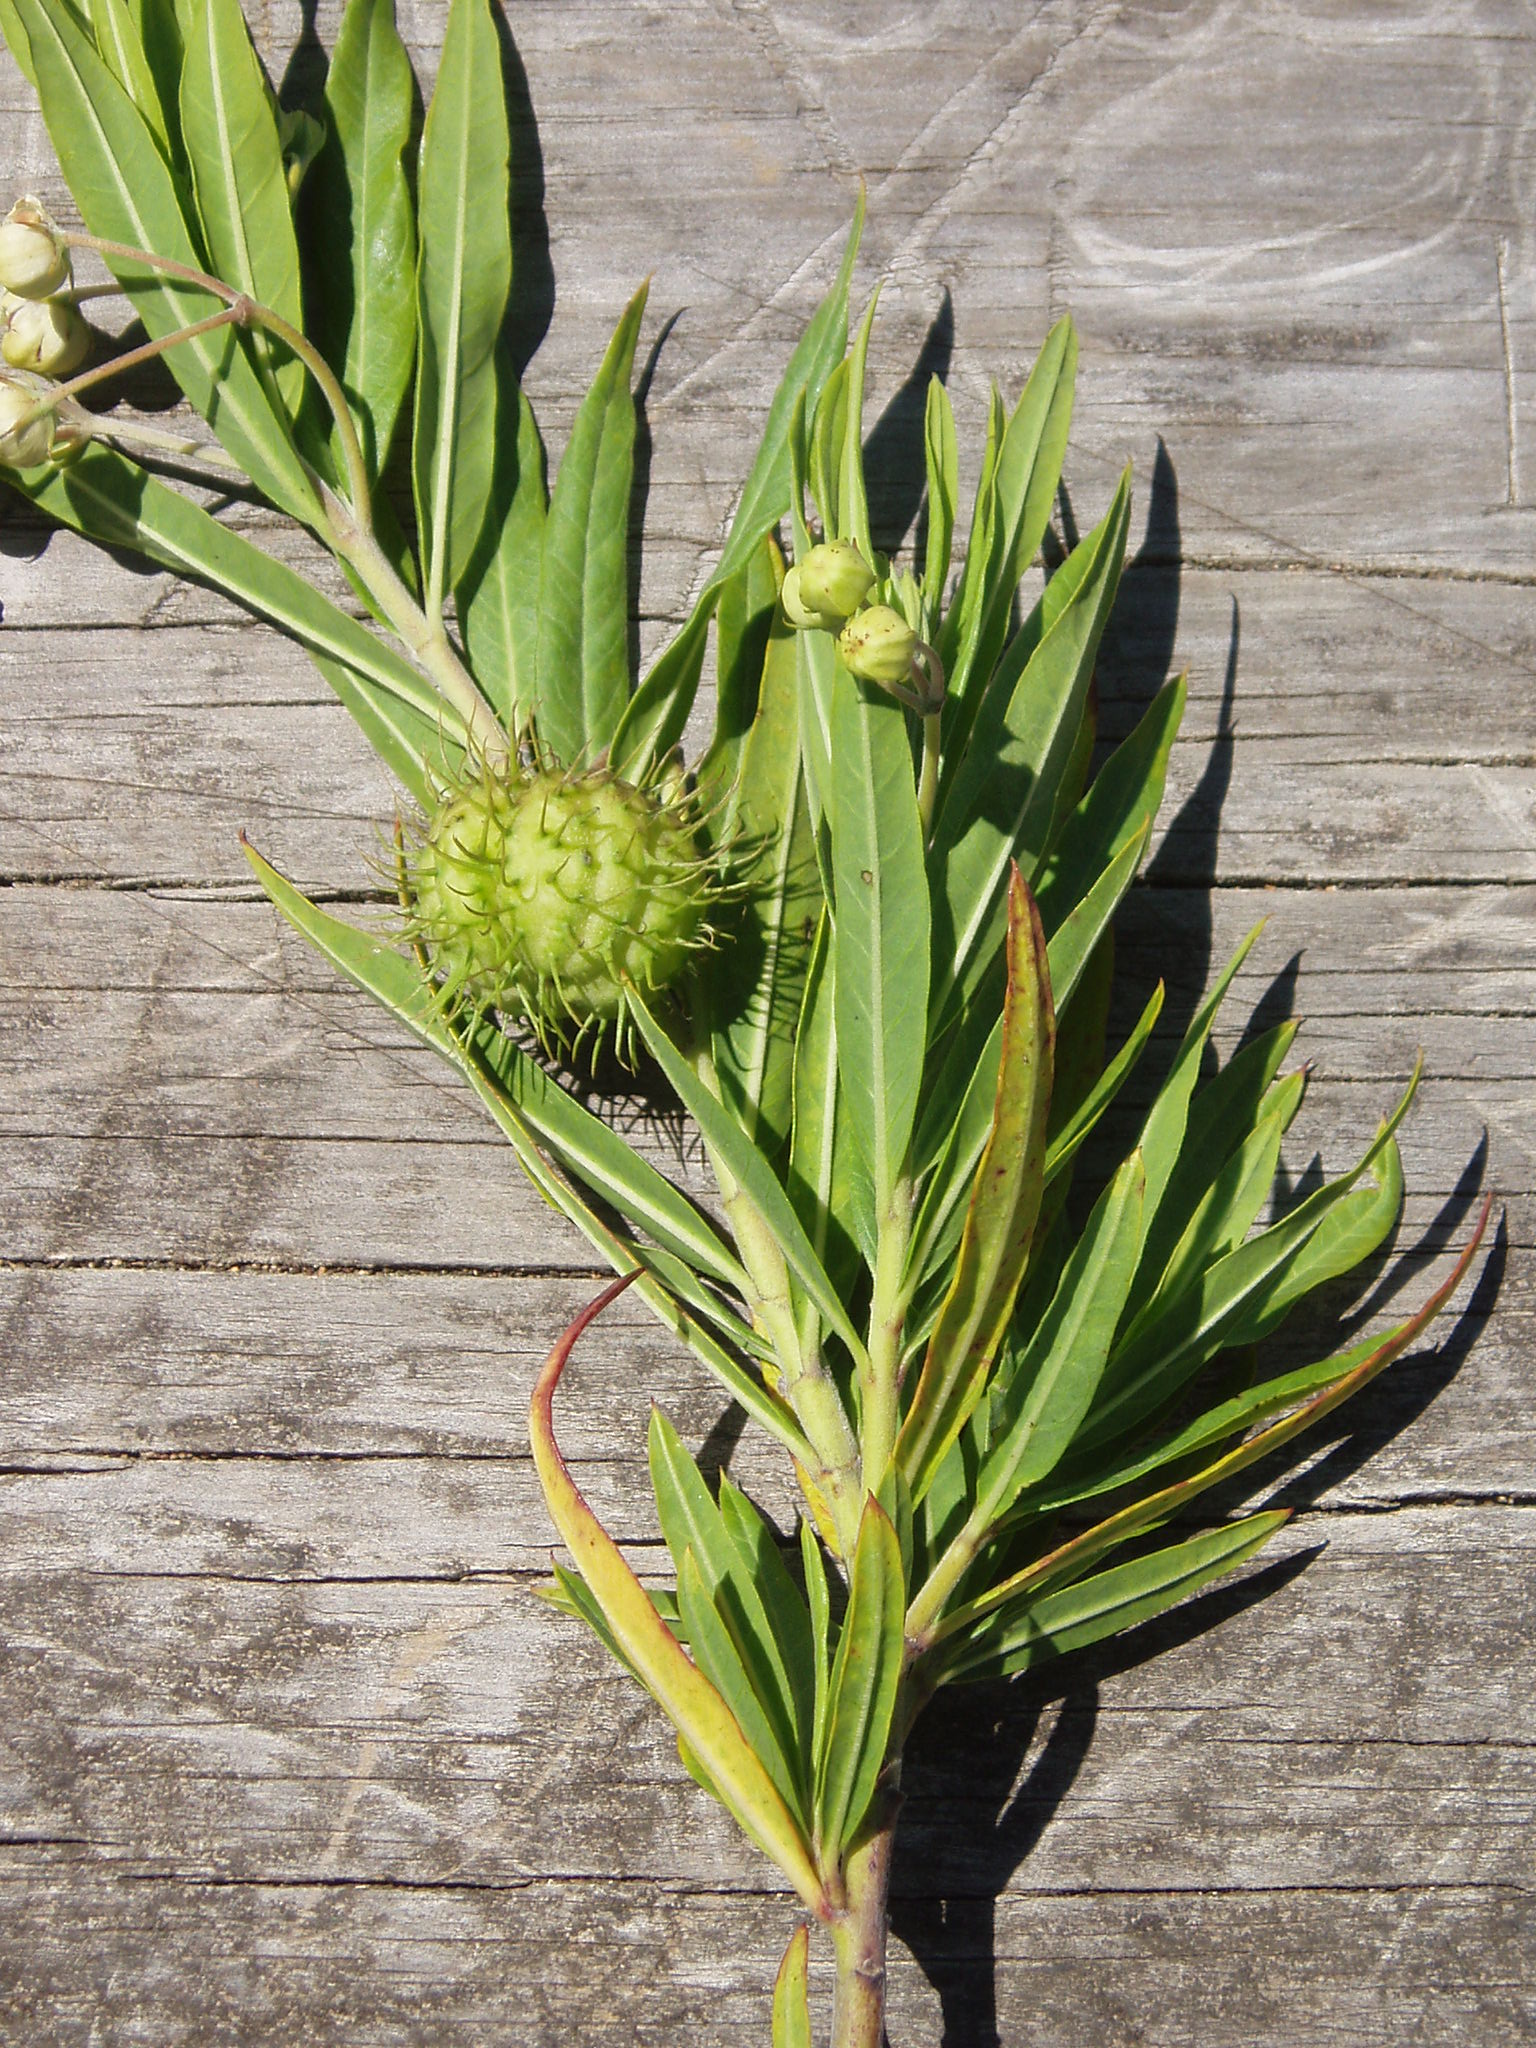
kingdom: Plantae
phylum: Tracheophyta
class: Magnoliopsida
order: Gentianales
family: Apocynaceae
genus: Gomphocarpus
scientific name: Gomphocarpus physocarpus
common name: Balloon cotton bush
